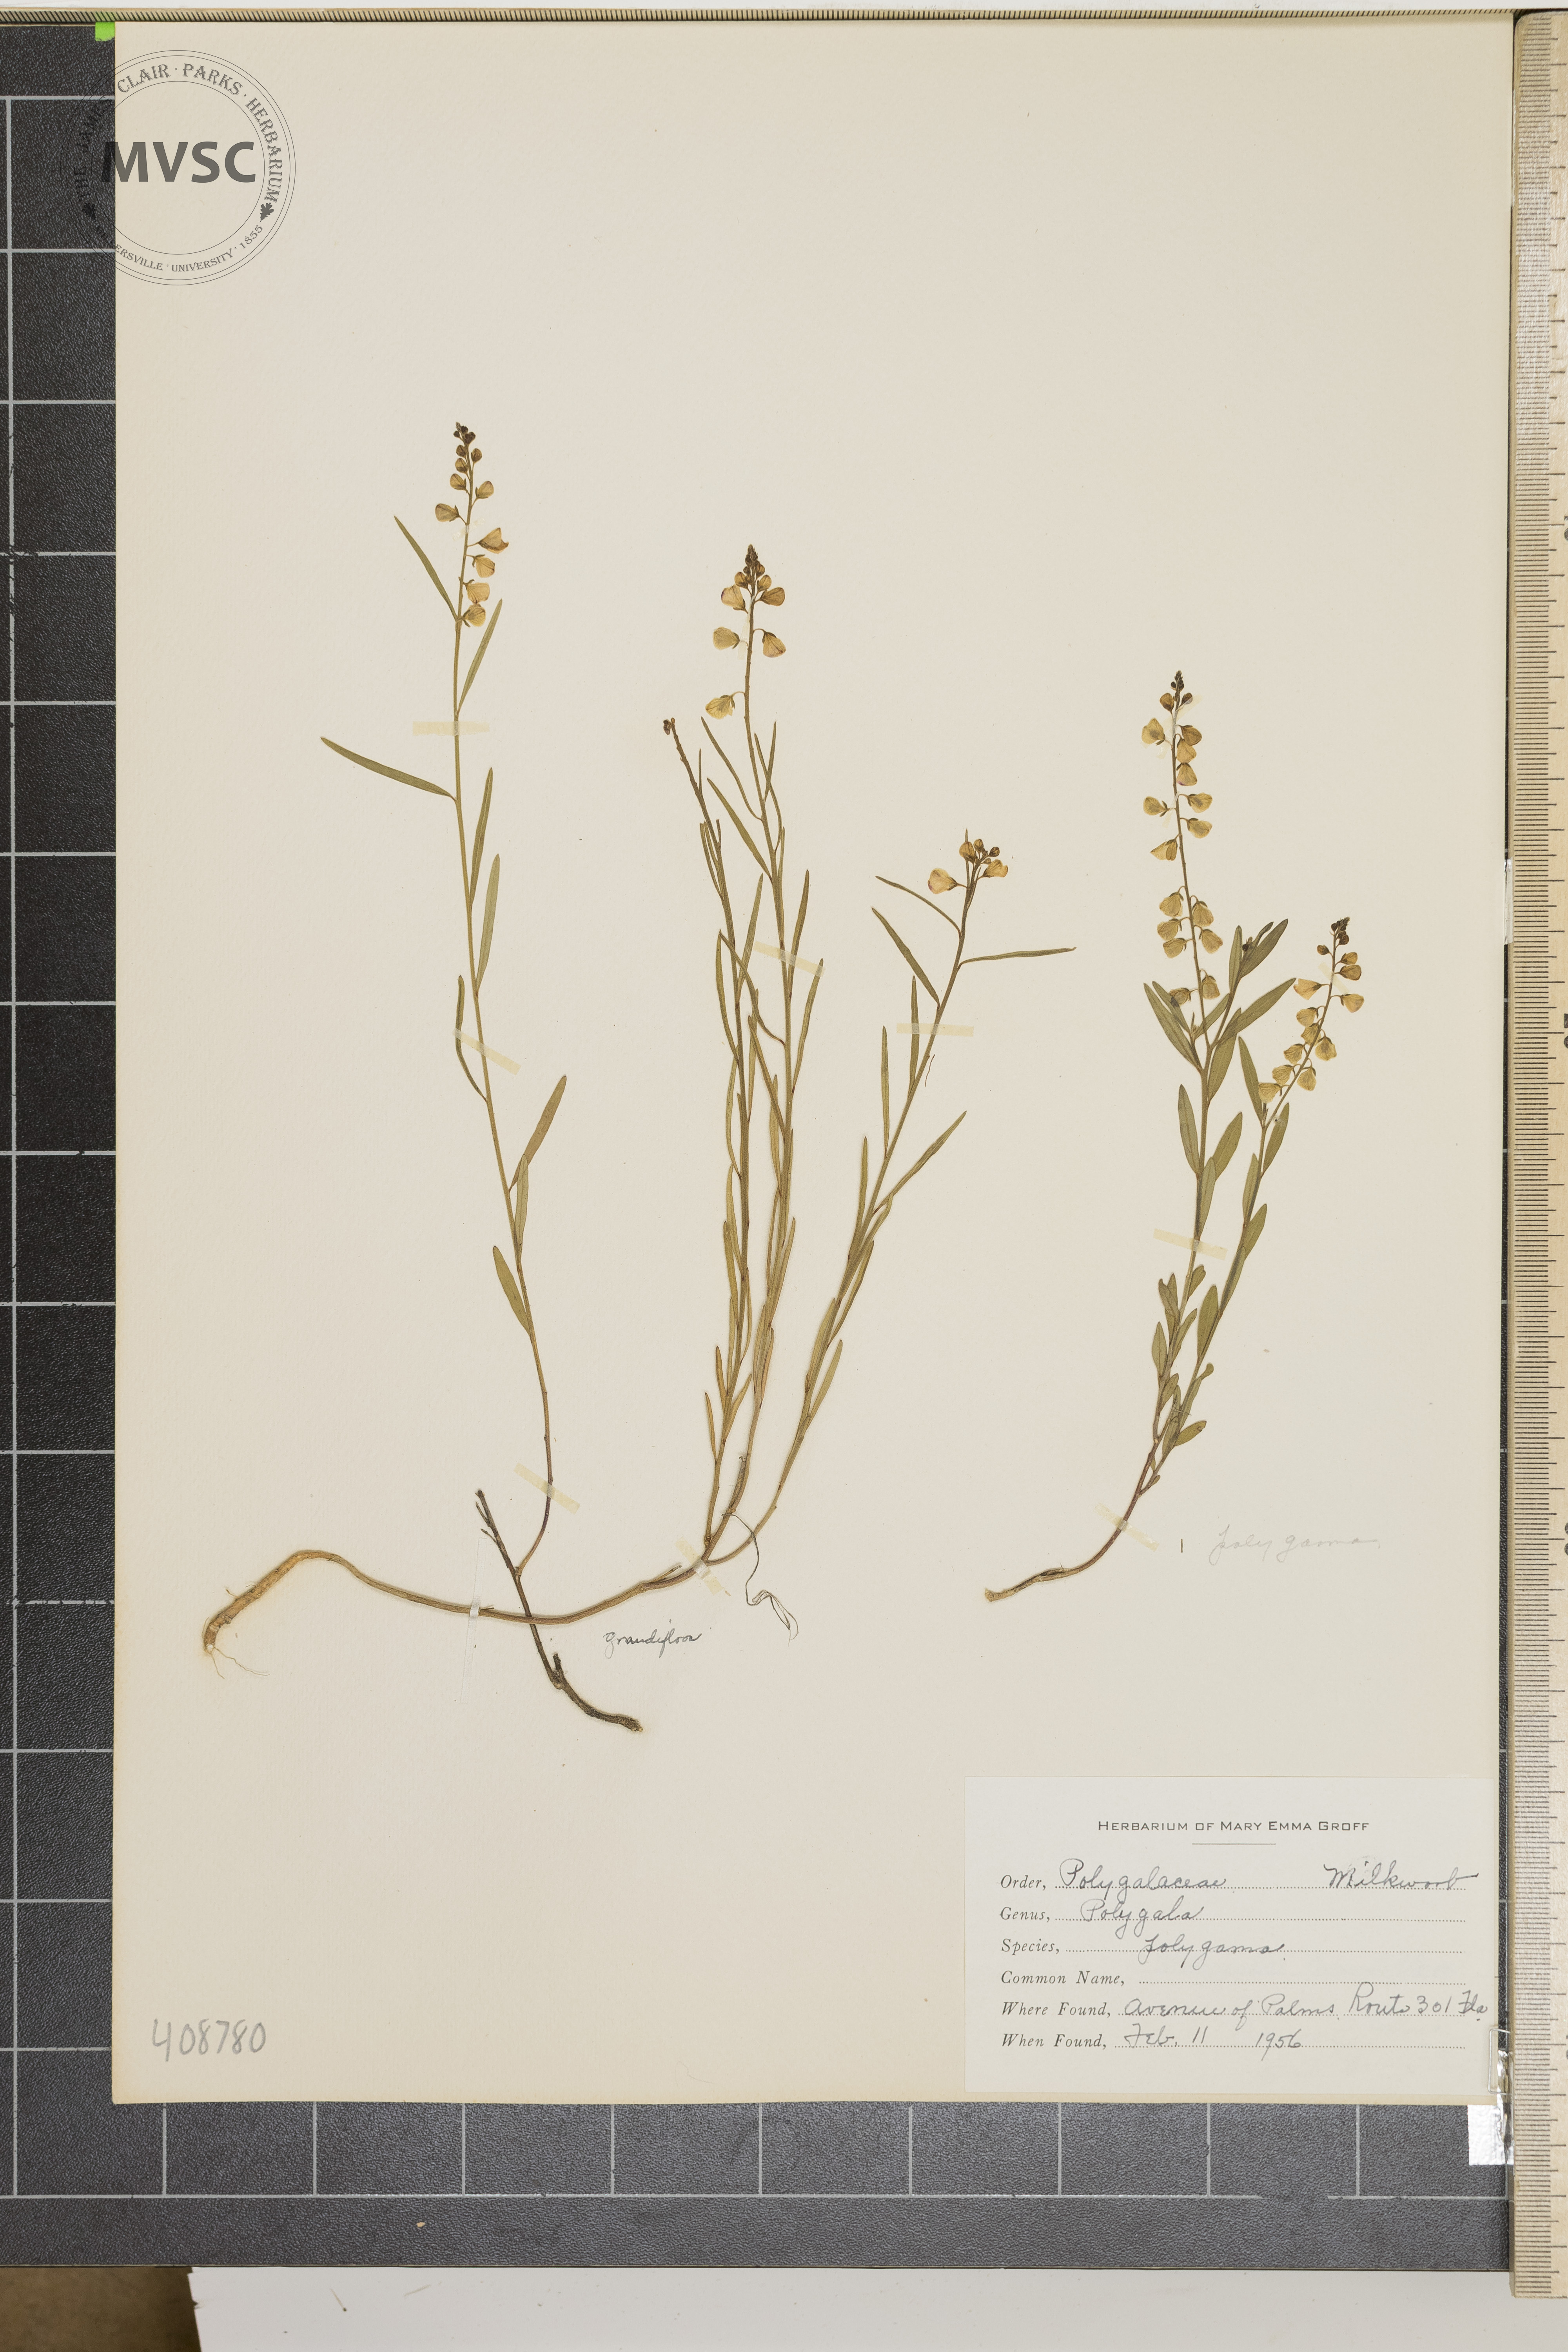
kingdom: Plantae
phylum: Tracheophyta
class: Magnoliopsida
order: Fabales
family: Polygalaceae
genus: Polygala
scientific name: Polygala polygama
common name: Bitter milkwort
